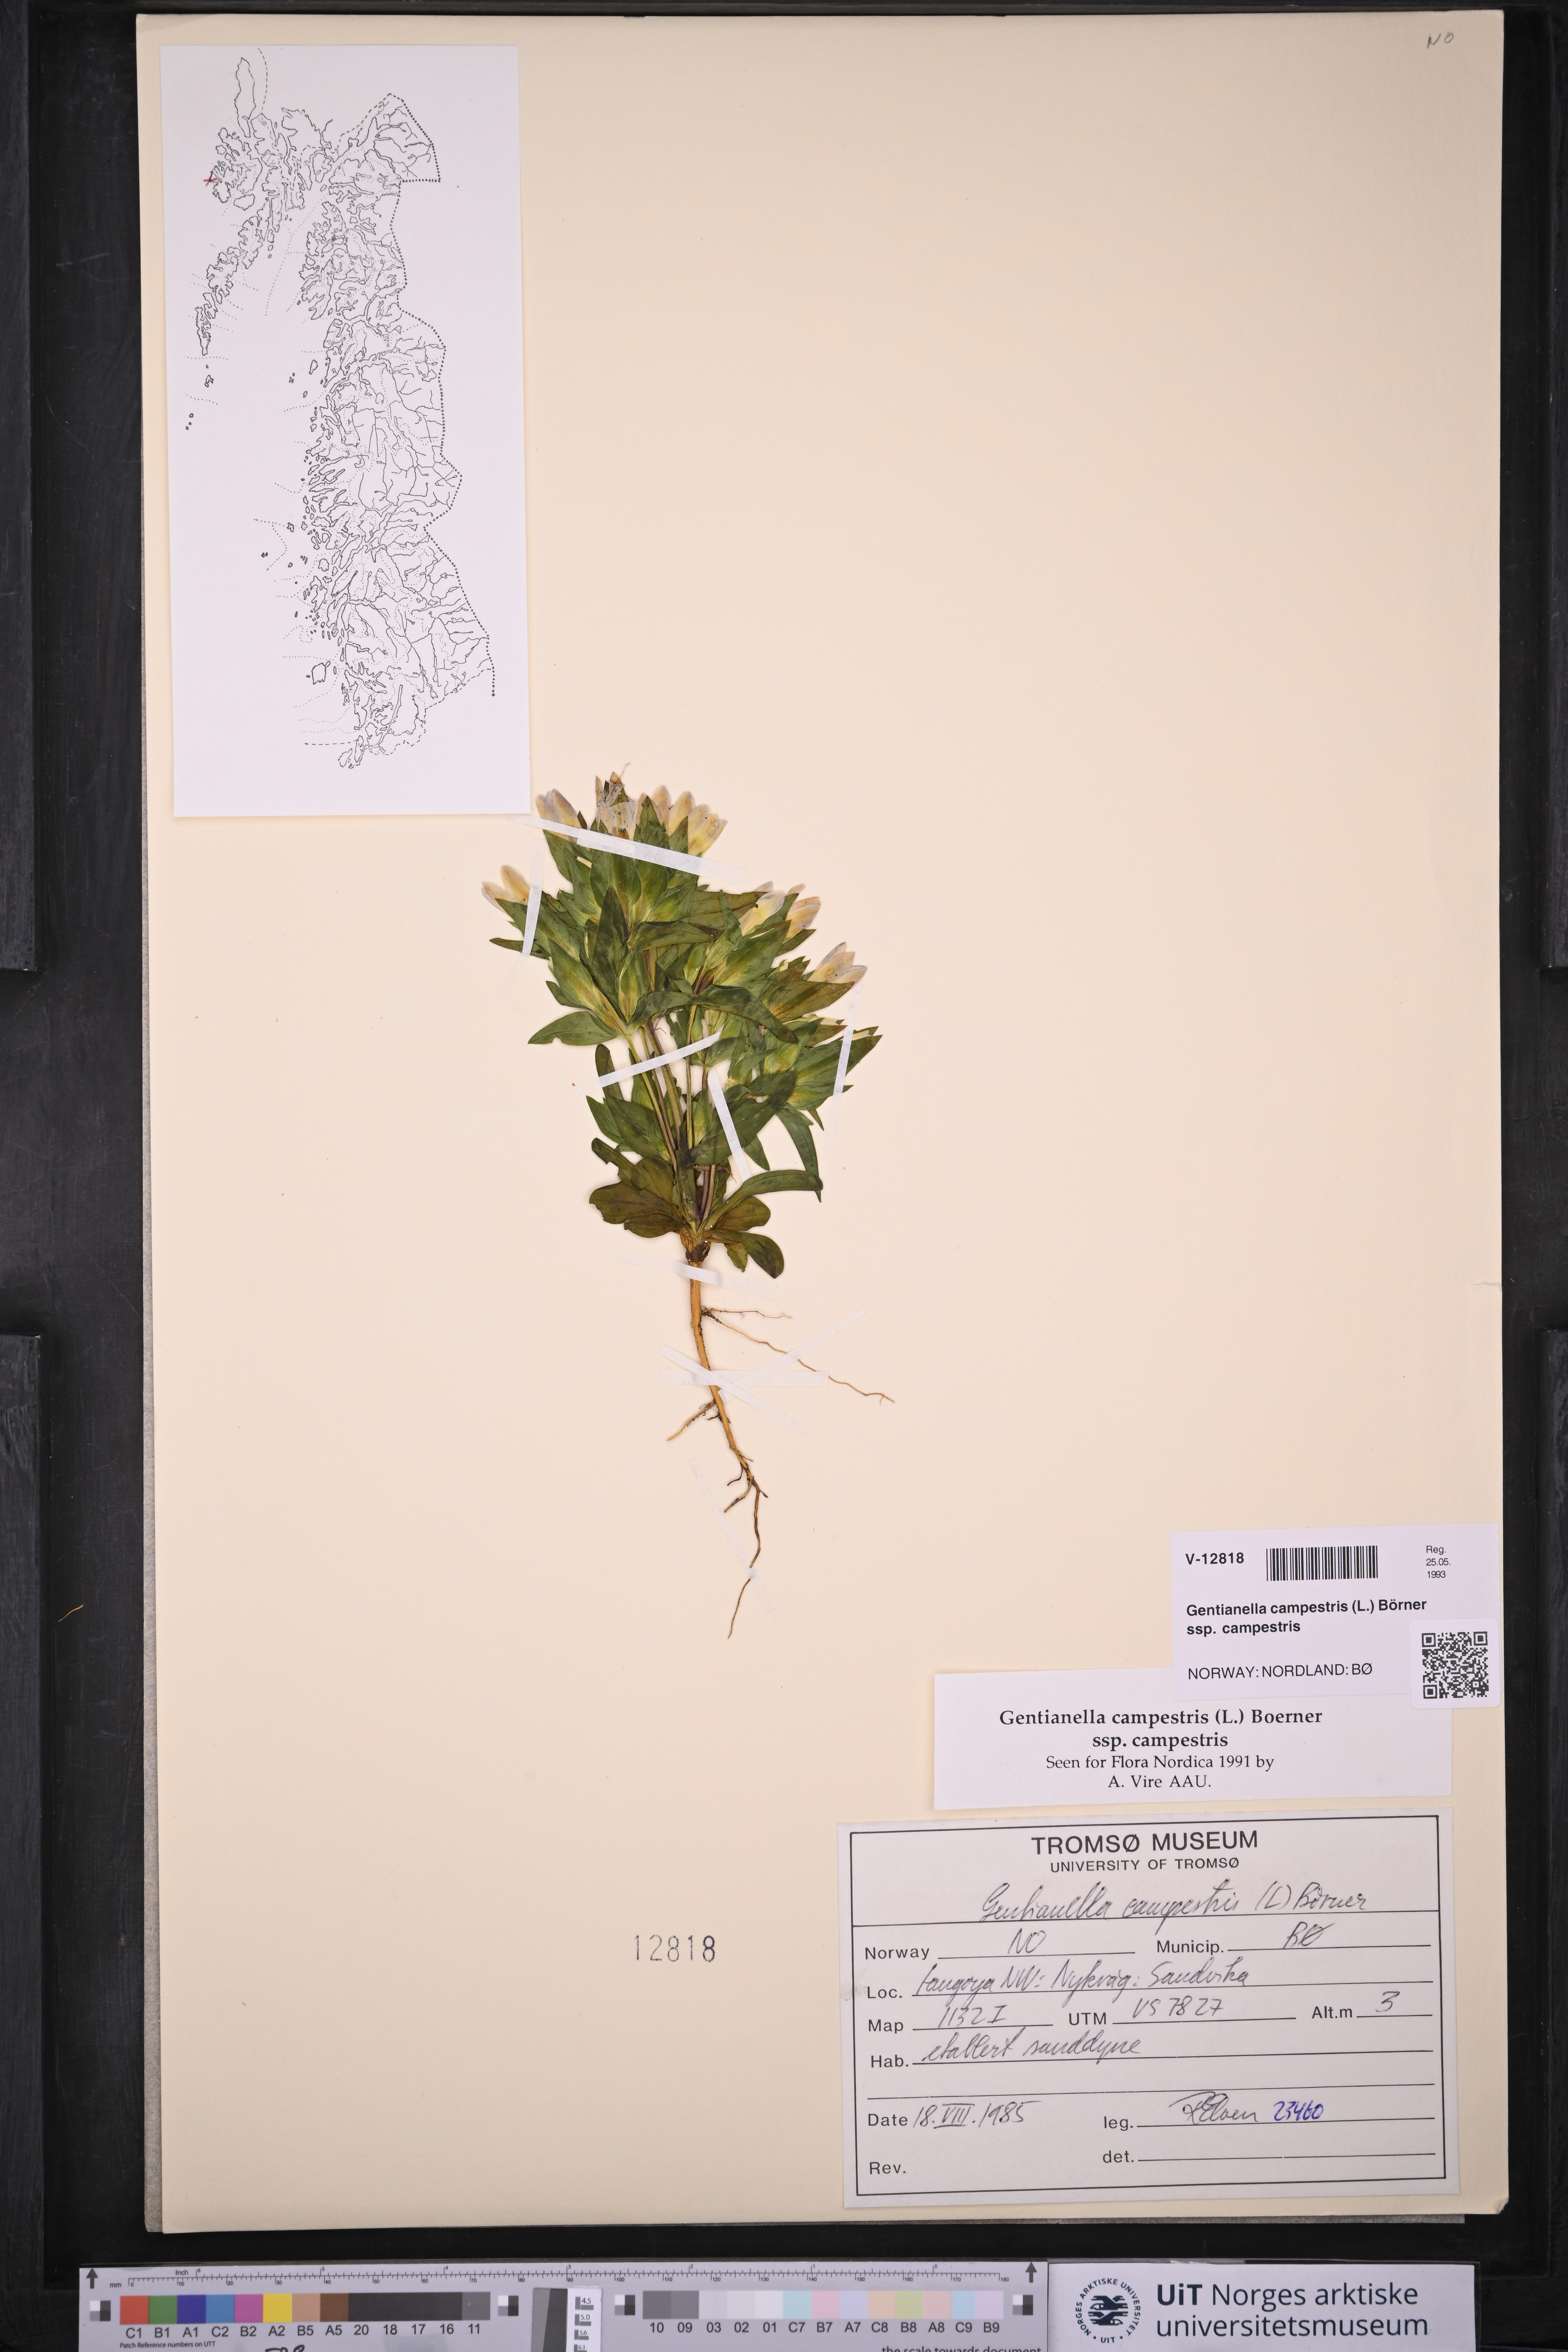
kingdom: Plantae
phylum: Tracheophyta
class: Magnoliopsida
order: Gentianales
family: Gentianaceae
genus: Gentianella
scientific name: Gentianella campestris
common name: Field gentian
